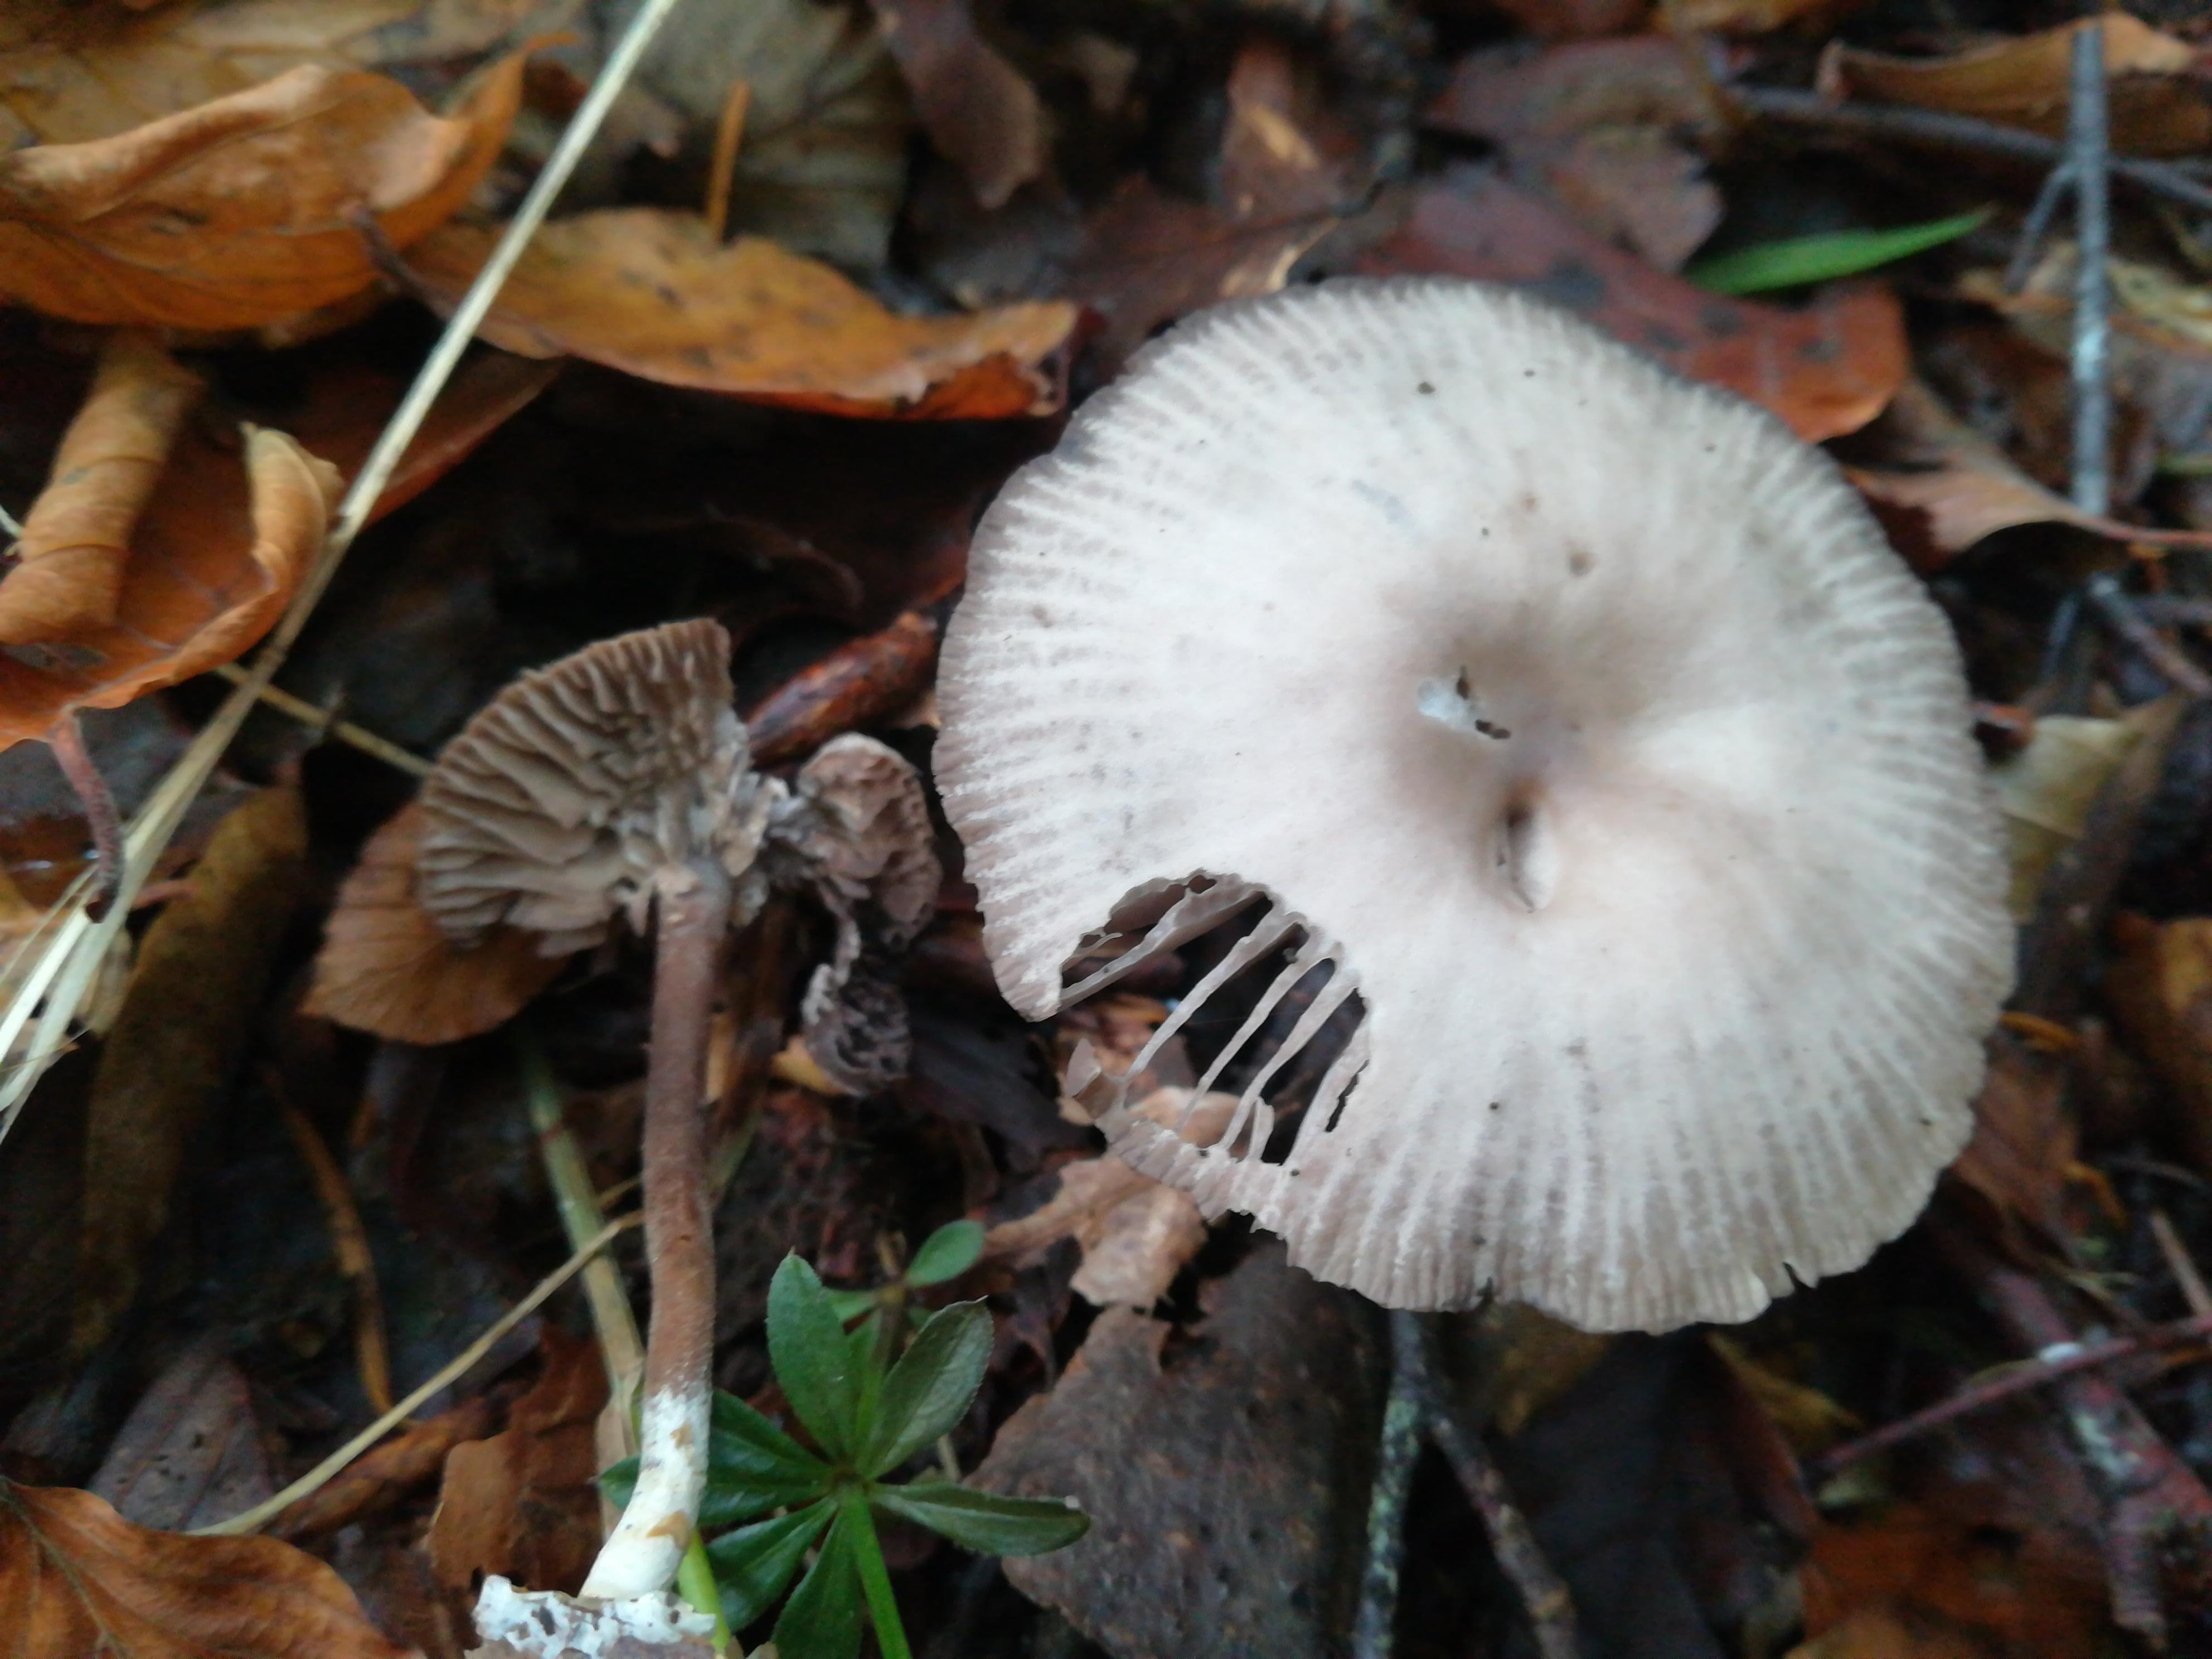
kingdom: Fungi
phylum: Basidiomycota
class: Agaricomycetes
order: Agaricales
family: Marasmiaceae
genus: Marasmius
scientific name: Marasmius wynneae
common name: hvælvet bruskhat
